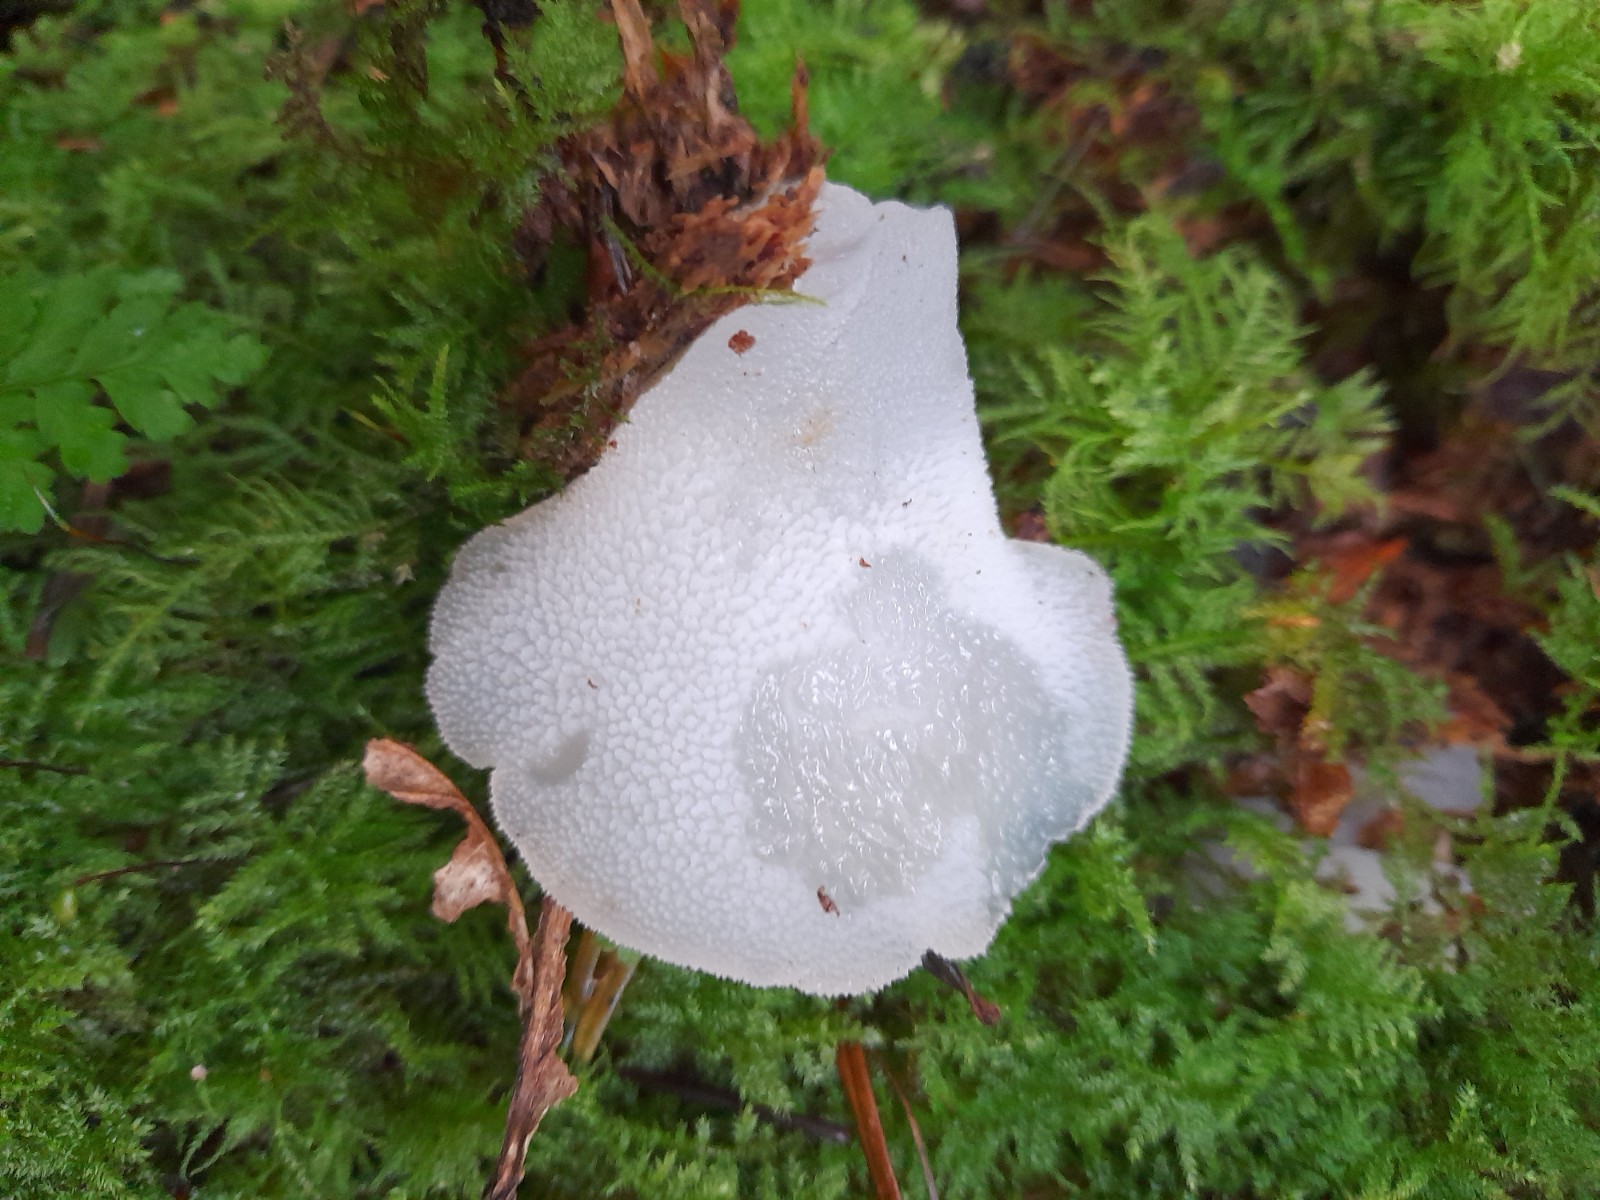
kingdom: Fungi
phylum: Basidiomycota
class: Agaricomycetes
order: Auriculariales
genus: Pseudohydnum
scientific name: Pseudohydnum gelatinosum
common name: bævretand
